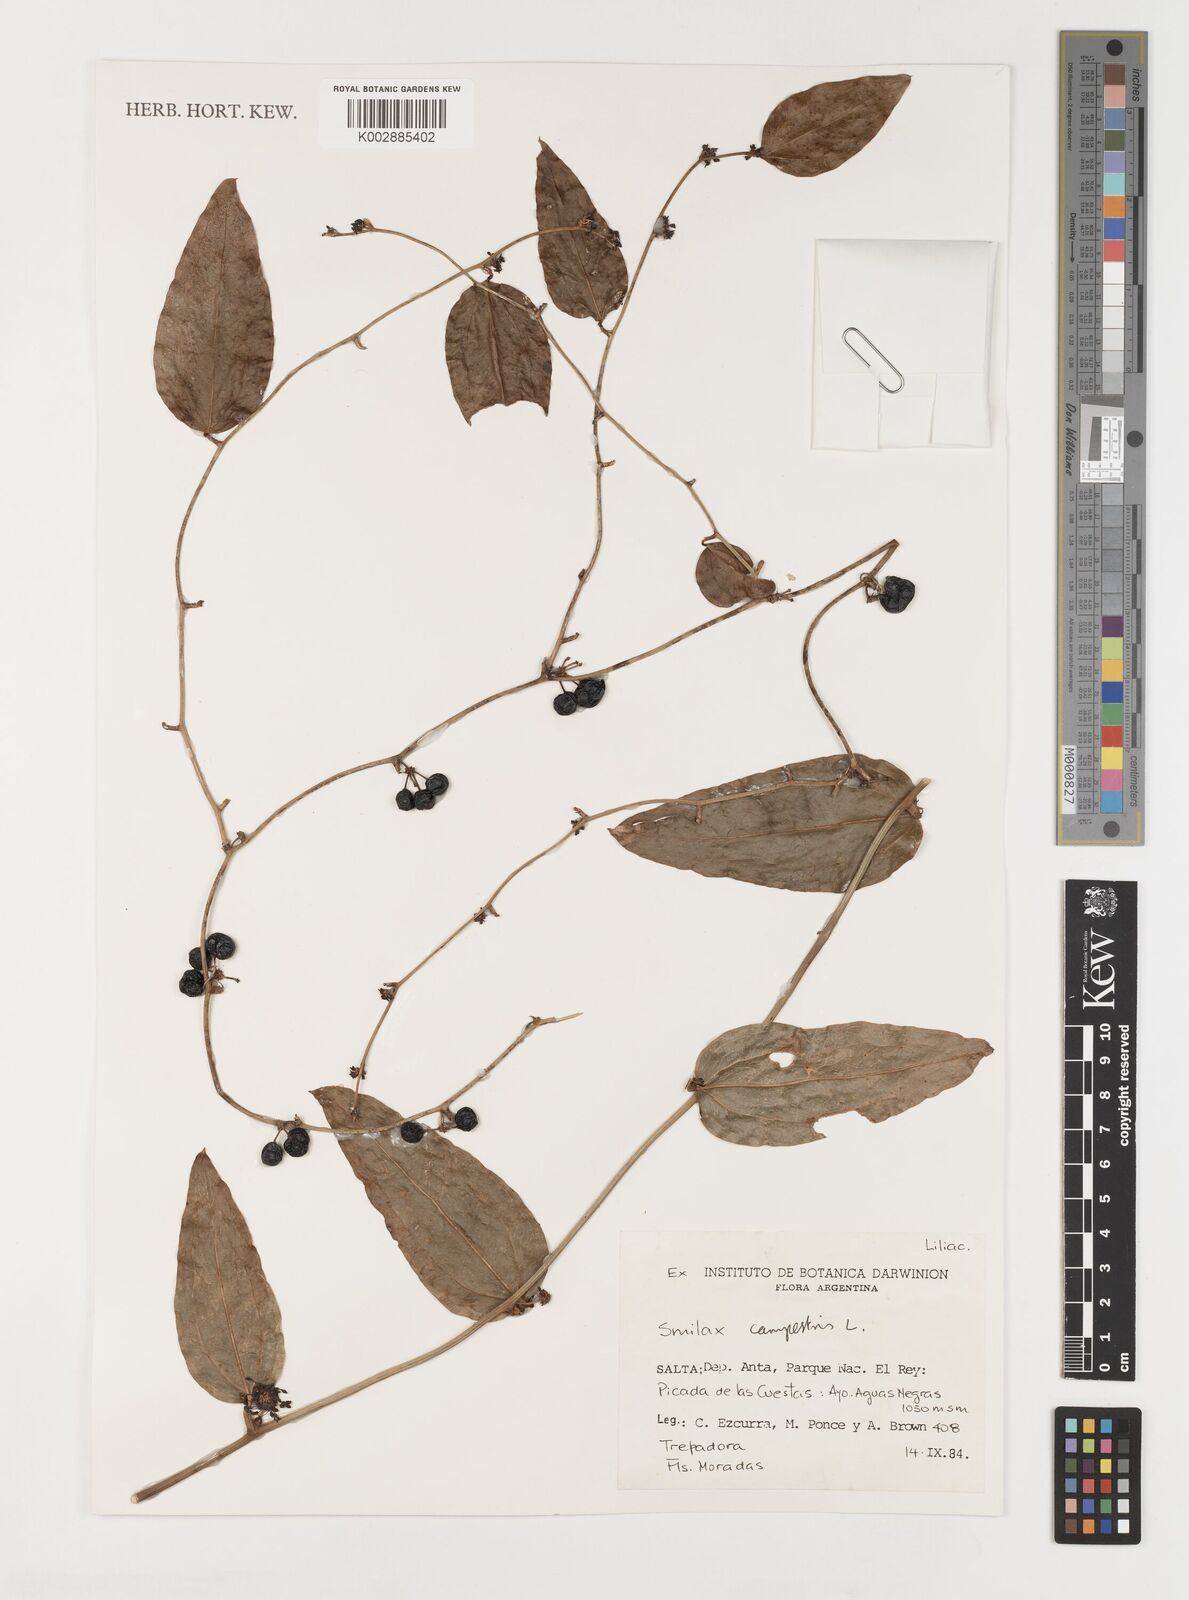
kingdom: Plantae
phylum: Tracheophyta
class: Liliopsida
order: Liliales
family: Smilacaceae
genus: Smilax
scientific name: Smilax campestris
